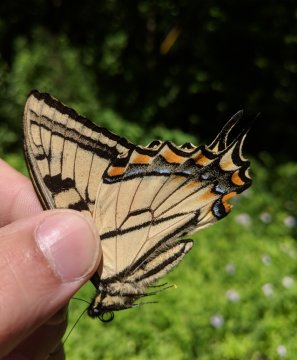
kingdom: Animalia
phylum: Arthropoda
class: Insecta
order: Lepidoptera
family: Papilionidae
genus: Pterourus
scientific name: Pterourus canadensis
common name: Canadian Tiger Swallowtail
